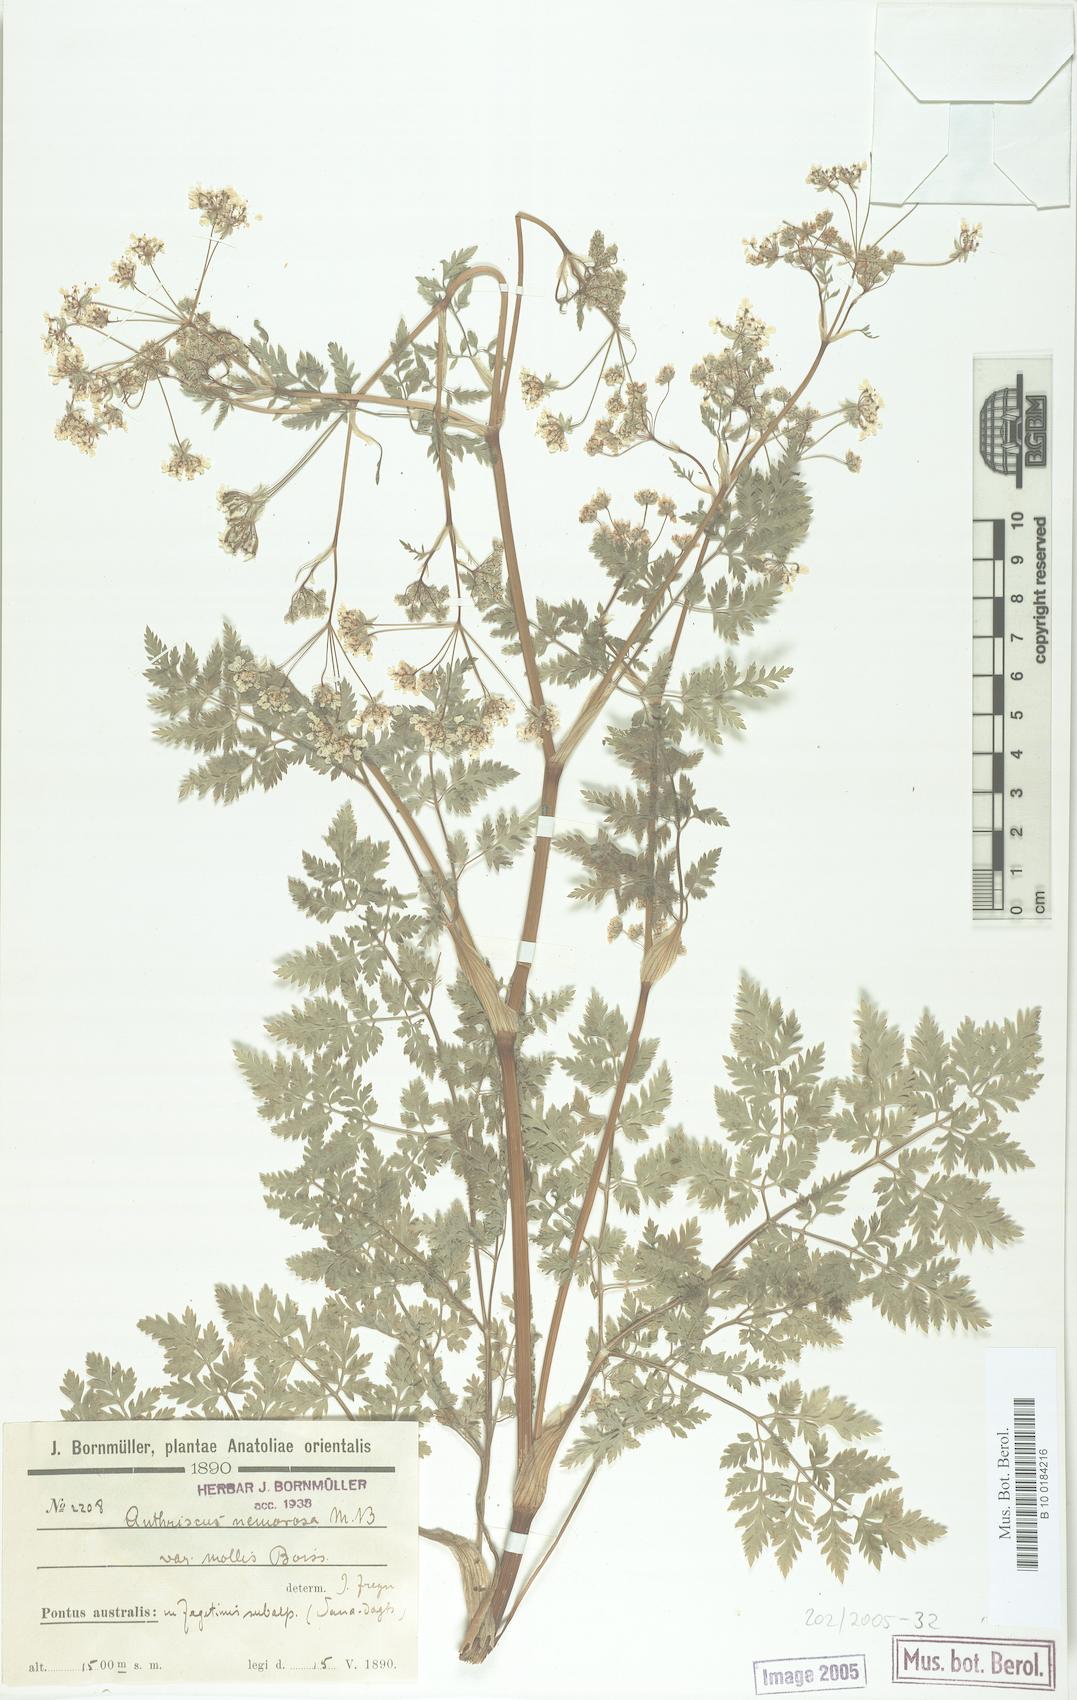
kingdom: Plantae
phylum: Tracheophyta
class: Magnoliopsida
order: Apiales
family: Apiaceae
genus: Anthriscus
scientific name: Anthriscus sylvestris
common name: Cow parsley
